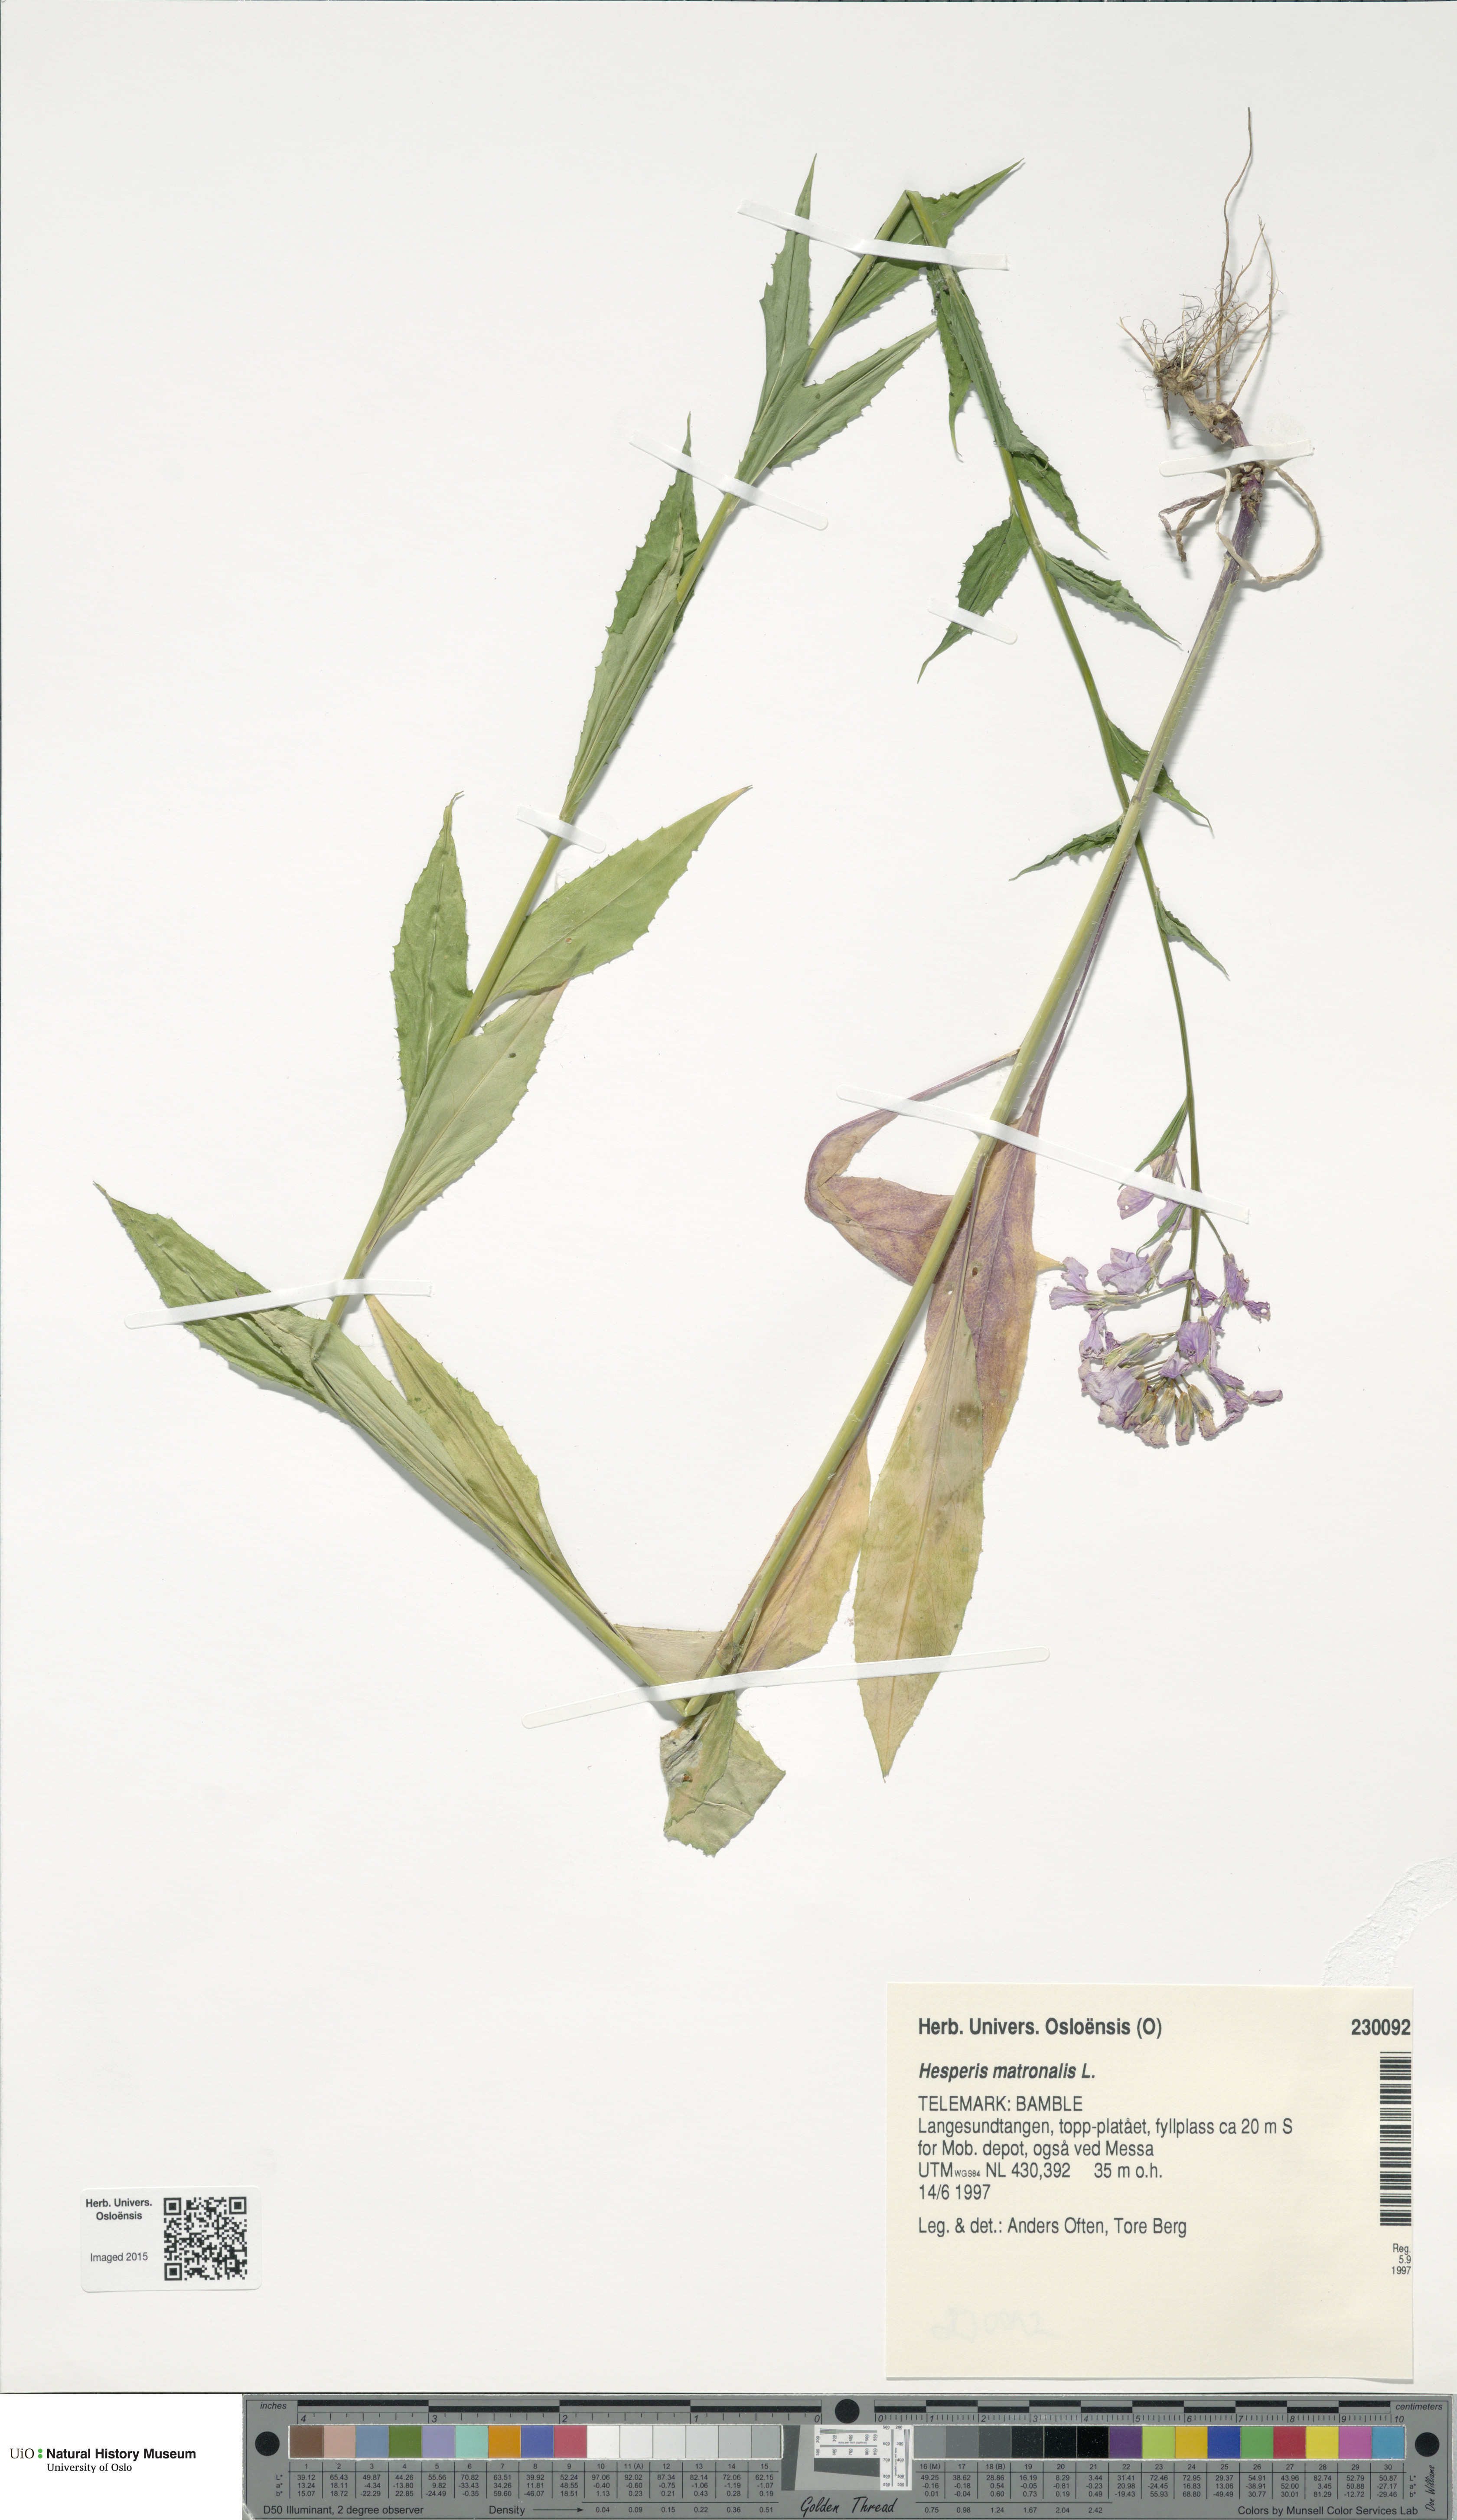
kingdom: Plantae
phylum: Tracheophyta
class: Magnoliopsida
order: Brassicales
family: Brassicaceae
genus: Hesperis
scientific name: Hesperis matronalis
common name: Dame's-violet
